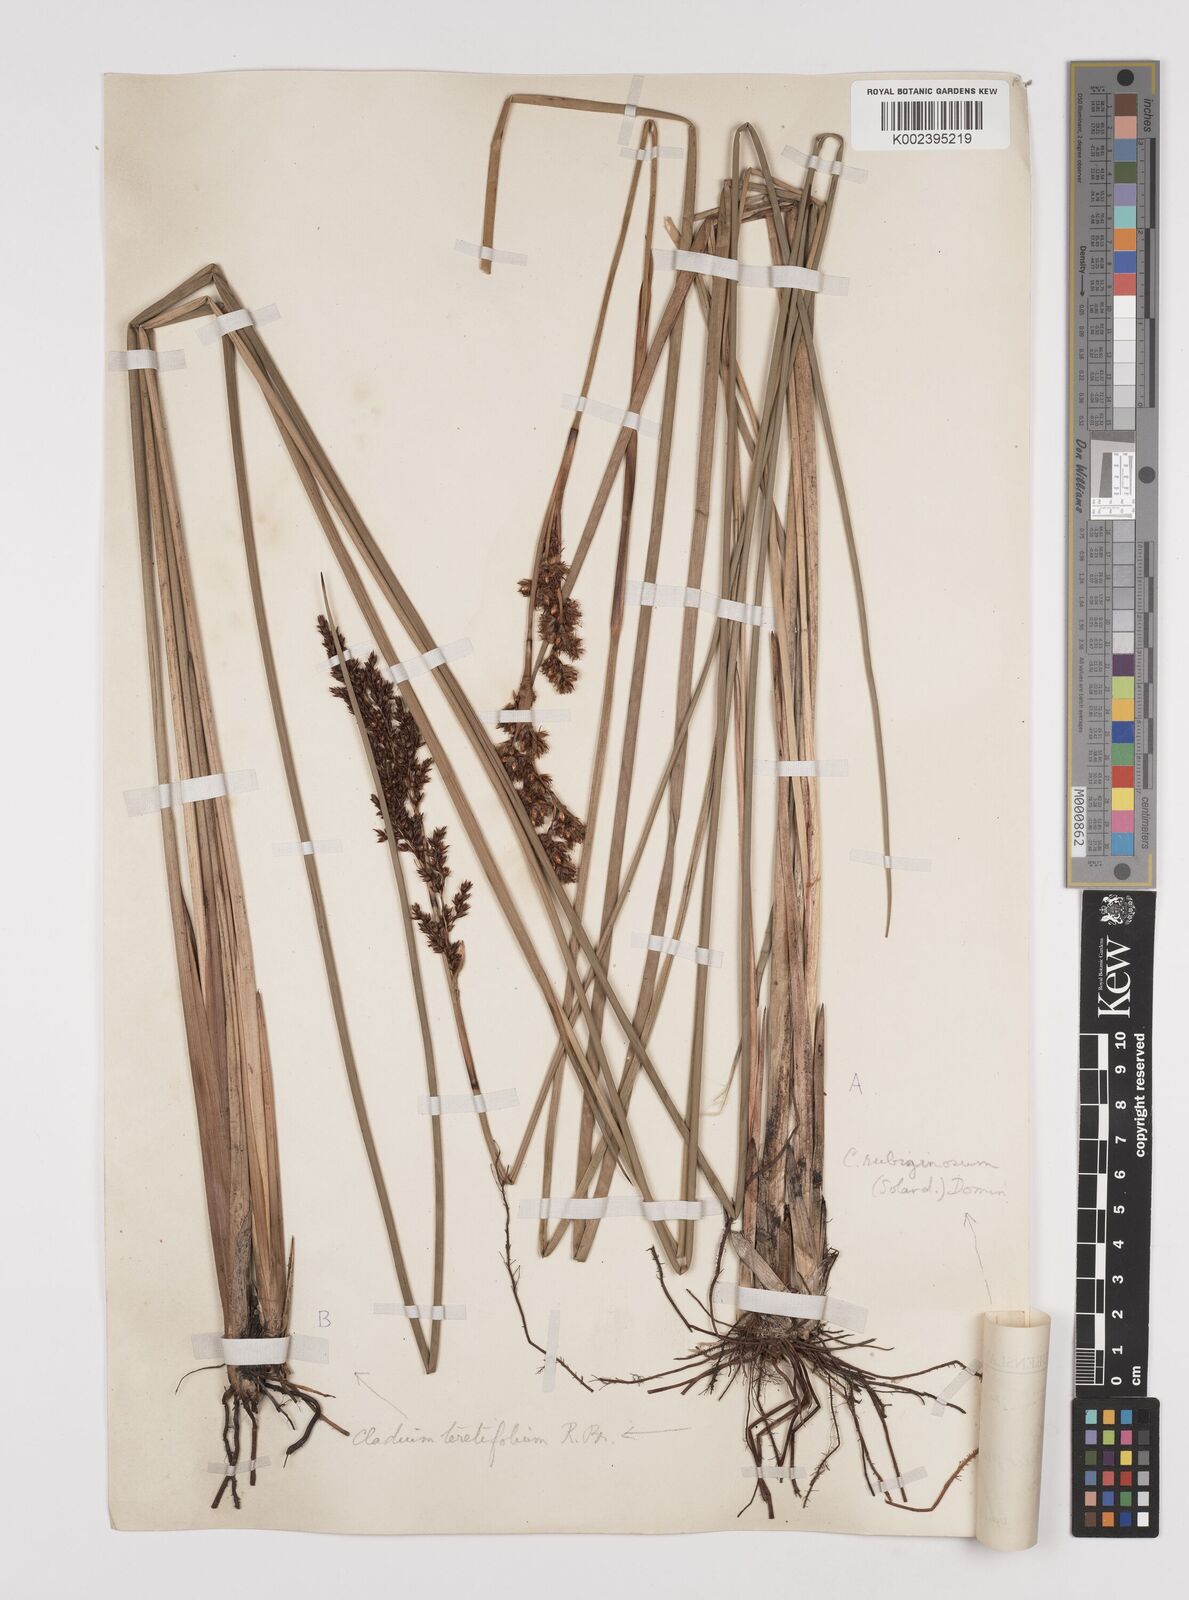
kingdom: Plantae
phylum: Tracheophyta
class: Liliopsida
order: Poales
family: Cyperaceae
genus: Machaerina
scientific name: Machaerina teretifolia
